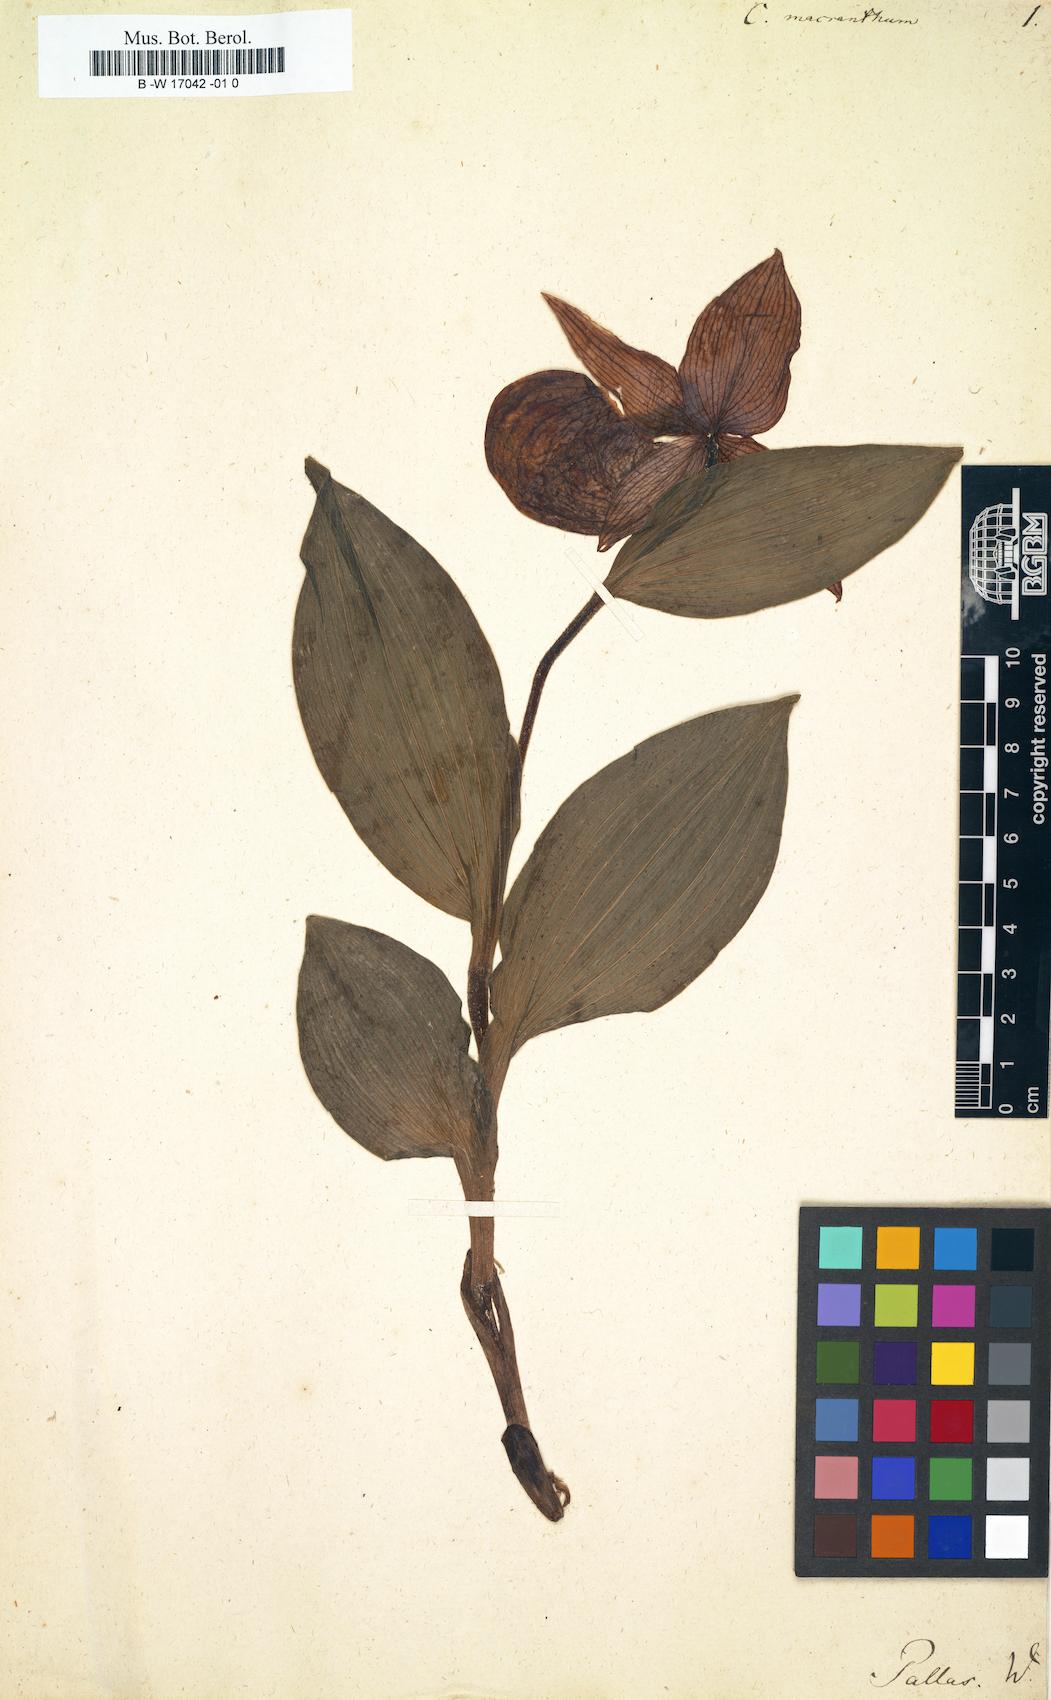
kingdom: Plantae
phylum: Tracheophyta
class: Liliopsida
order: Asparagales
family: Orchidaceae
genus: Cypripedium
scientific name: Cypripedium macranthos
